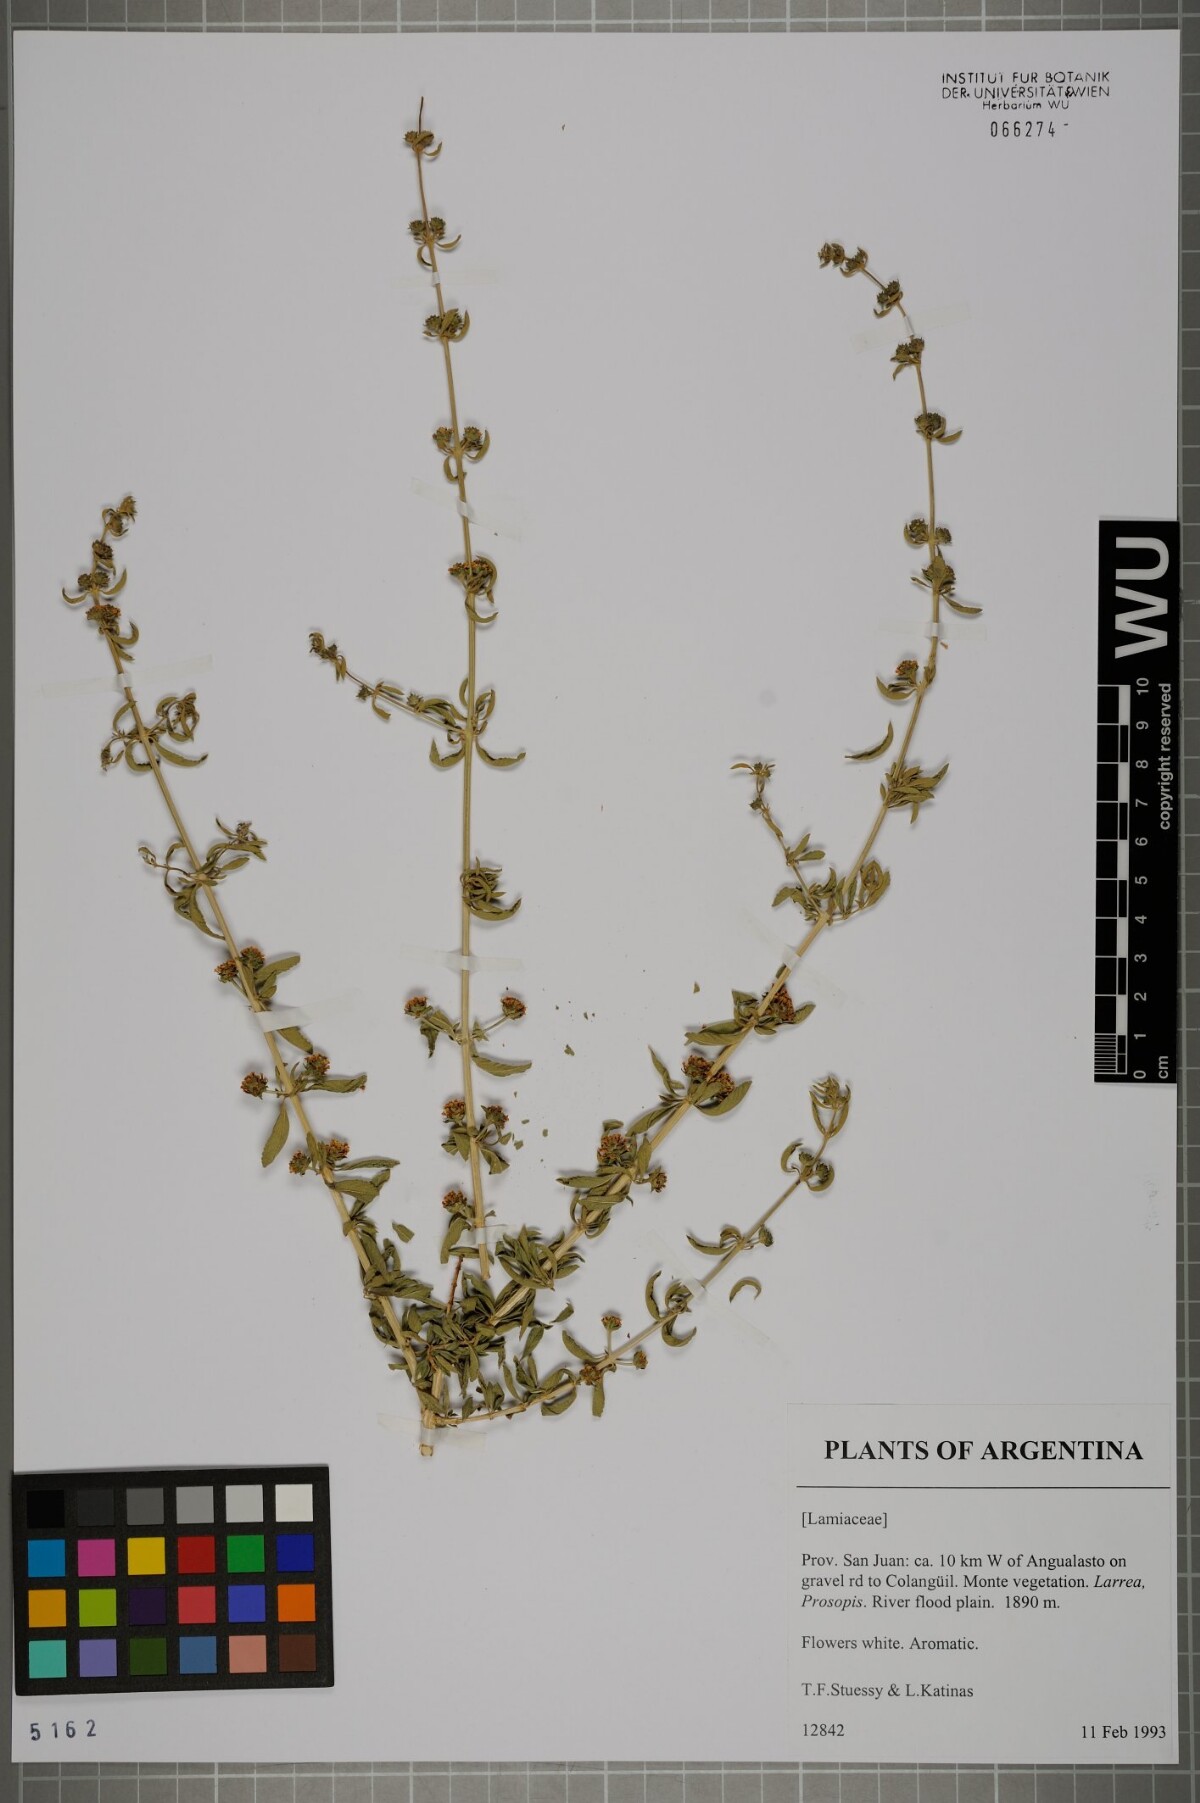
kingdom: Plantae
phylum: Tracheophyta
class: Magnoliopsida
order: Lamiales
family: Lamiaceae
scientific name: Lamiaceae
